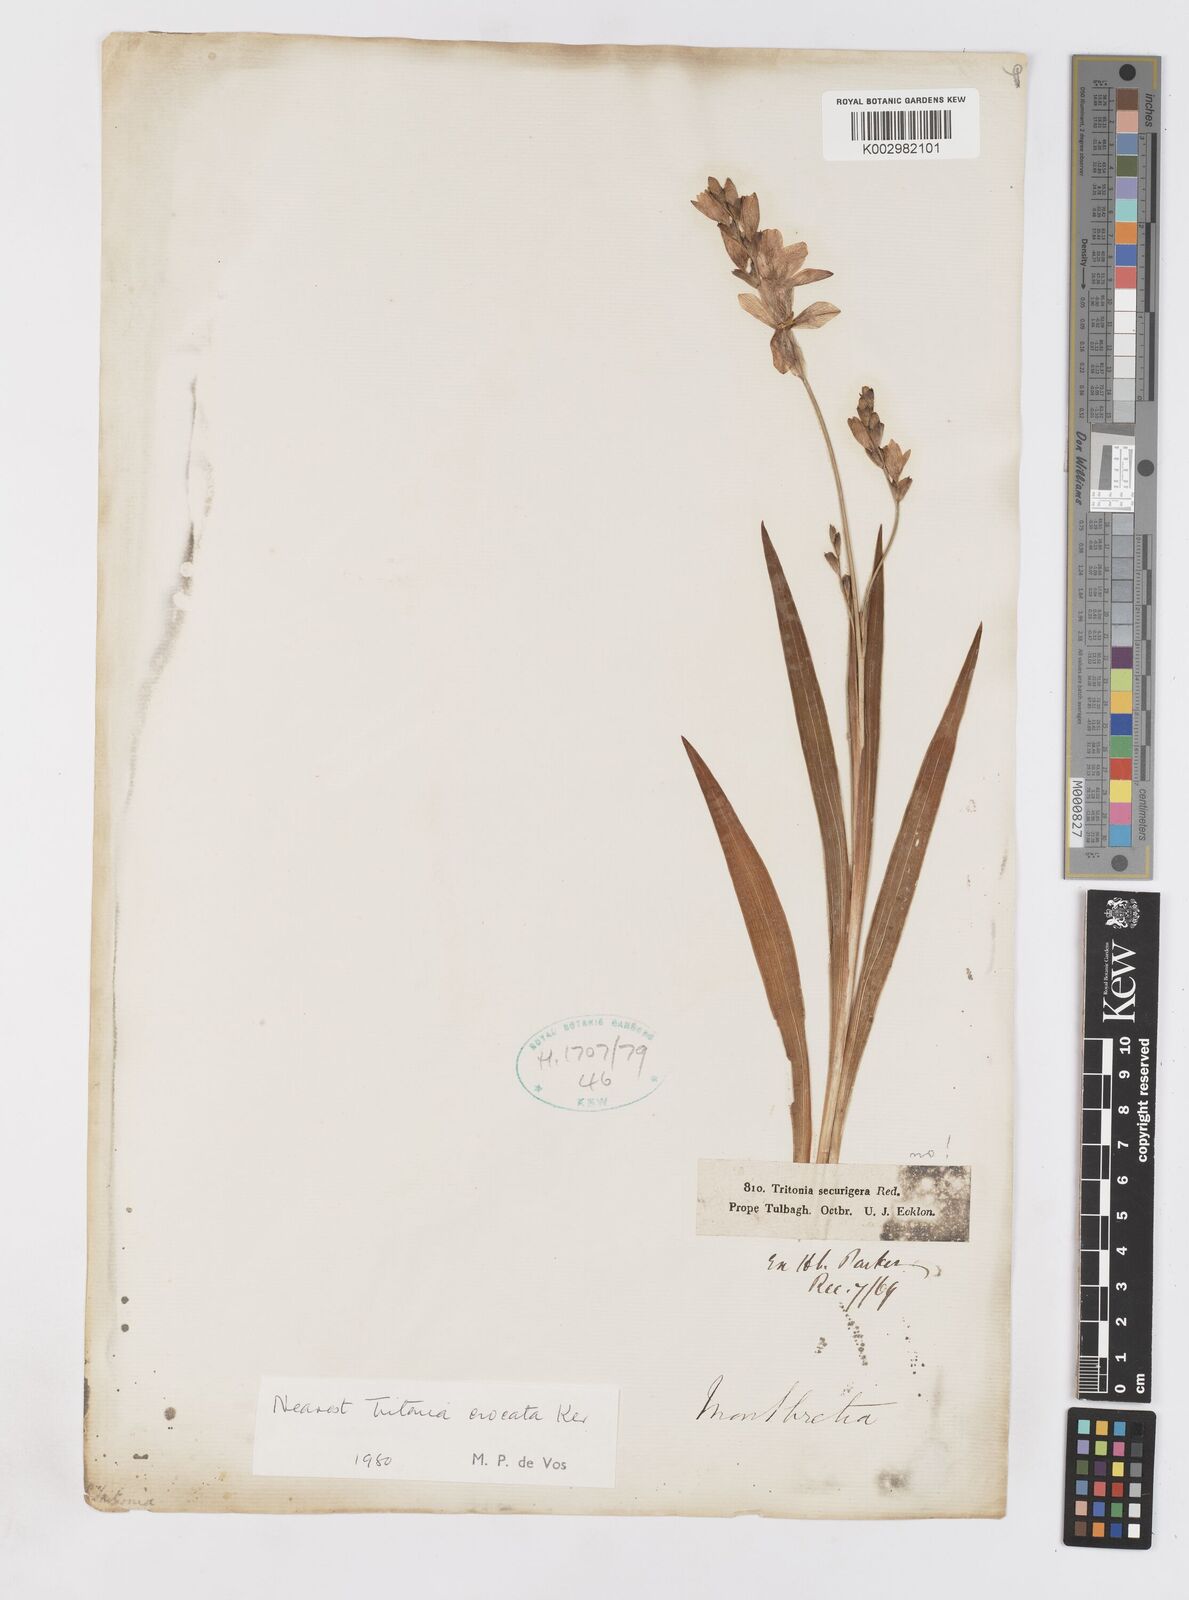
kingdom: Plantae
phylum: Tracheophyta
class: Liliopsida
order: Asparagales
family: Iridaceae
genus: Tritonia
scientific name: Tritonia crocata
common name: Flame-freesia
